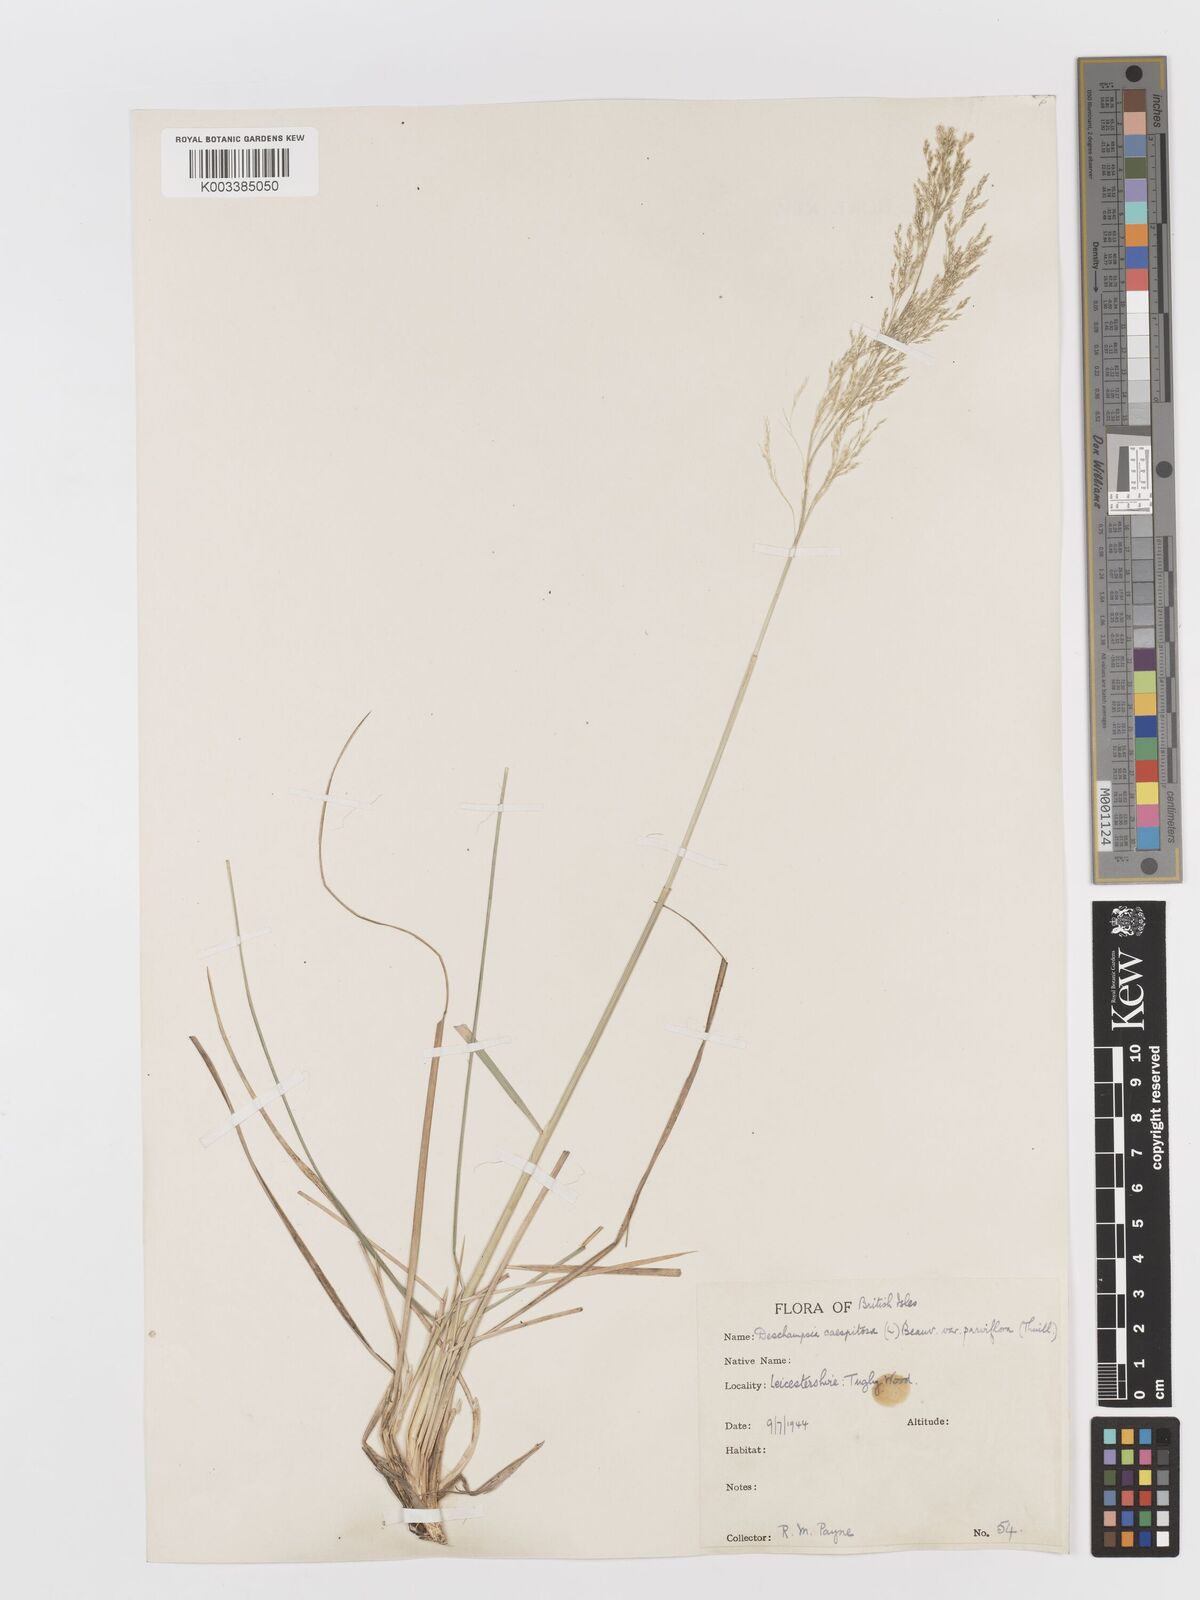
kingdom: Plantae
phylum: Tracheophyta
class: Liliopsida
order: Poales
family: Poaceae
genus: Deschampsia
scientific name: Deschampsia cespitosa
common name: Tufted hair-grass
